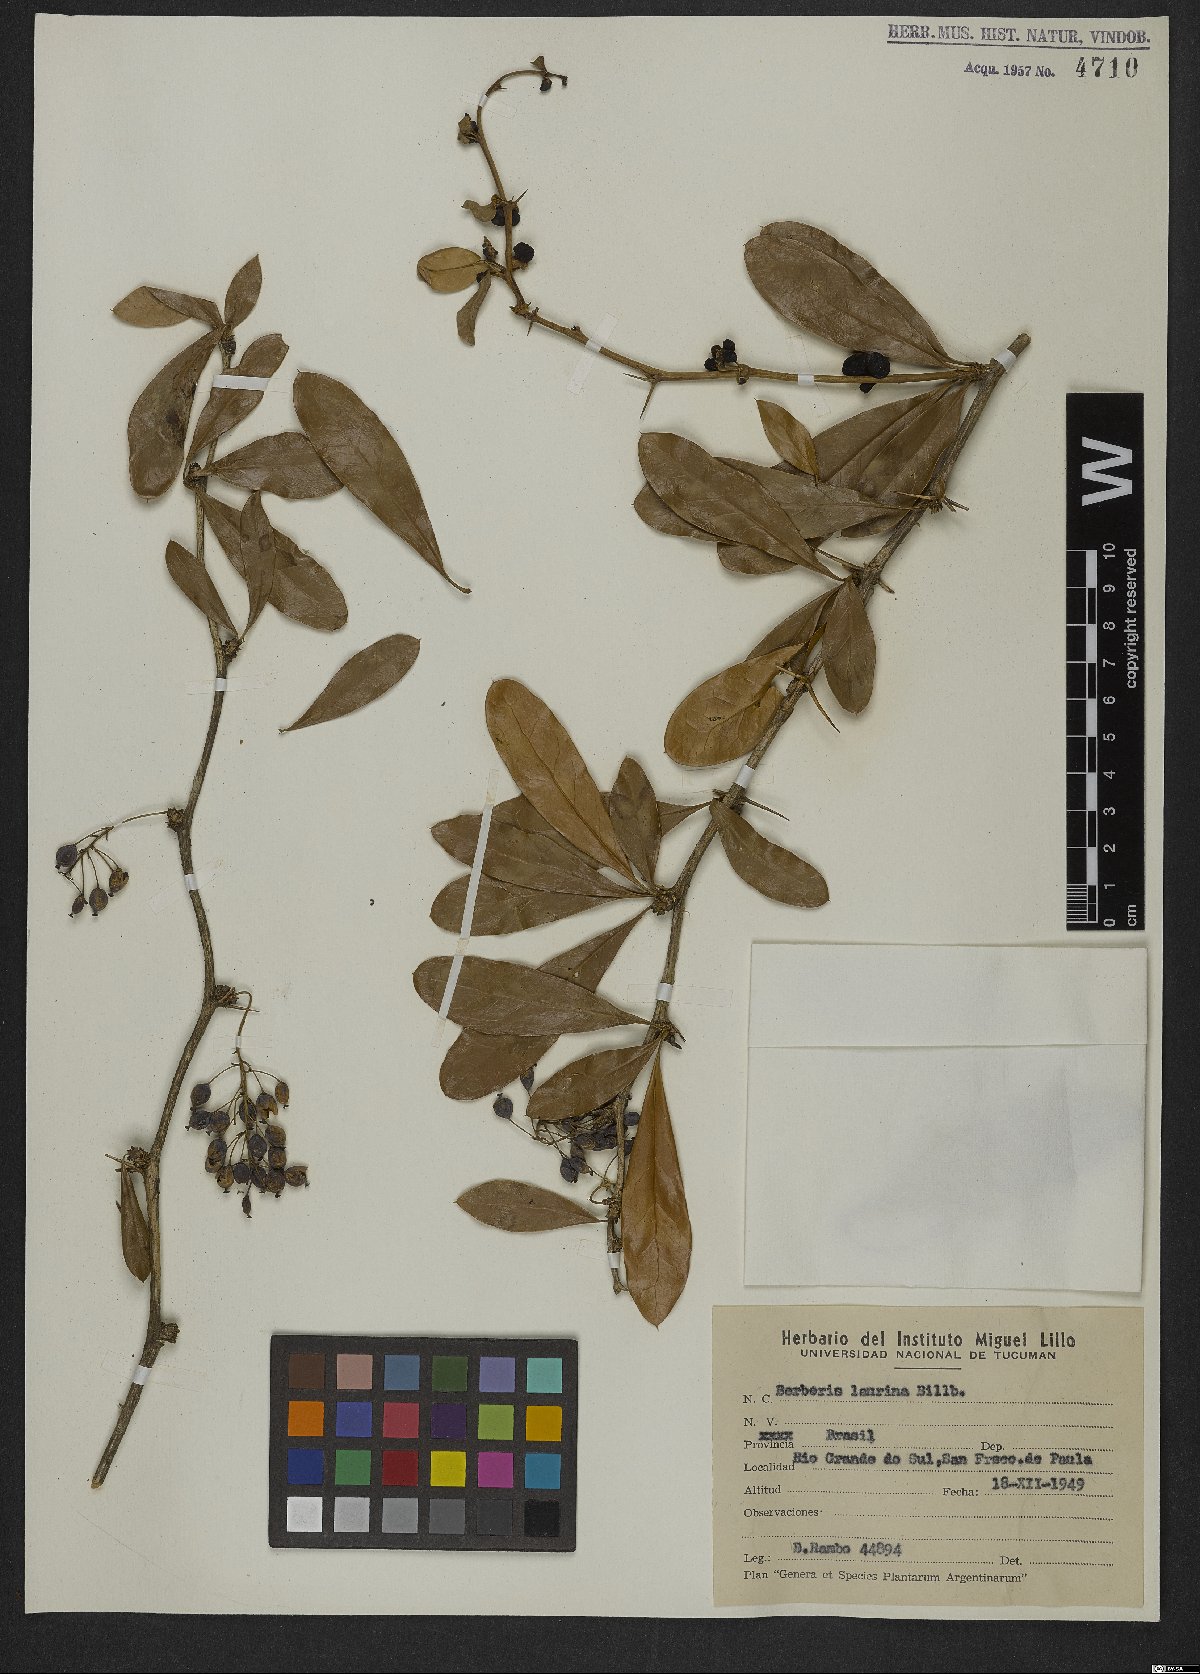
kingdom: Plantae
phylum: Tracheophyta
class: Magnoliopsida
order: Ranunculales
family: Berberidaceae
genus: Berberis
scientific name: Berberis laurina
